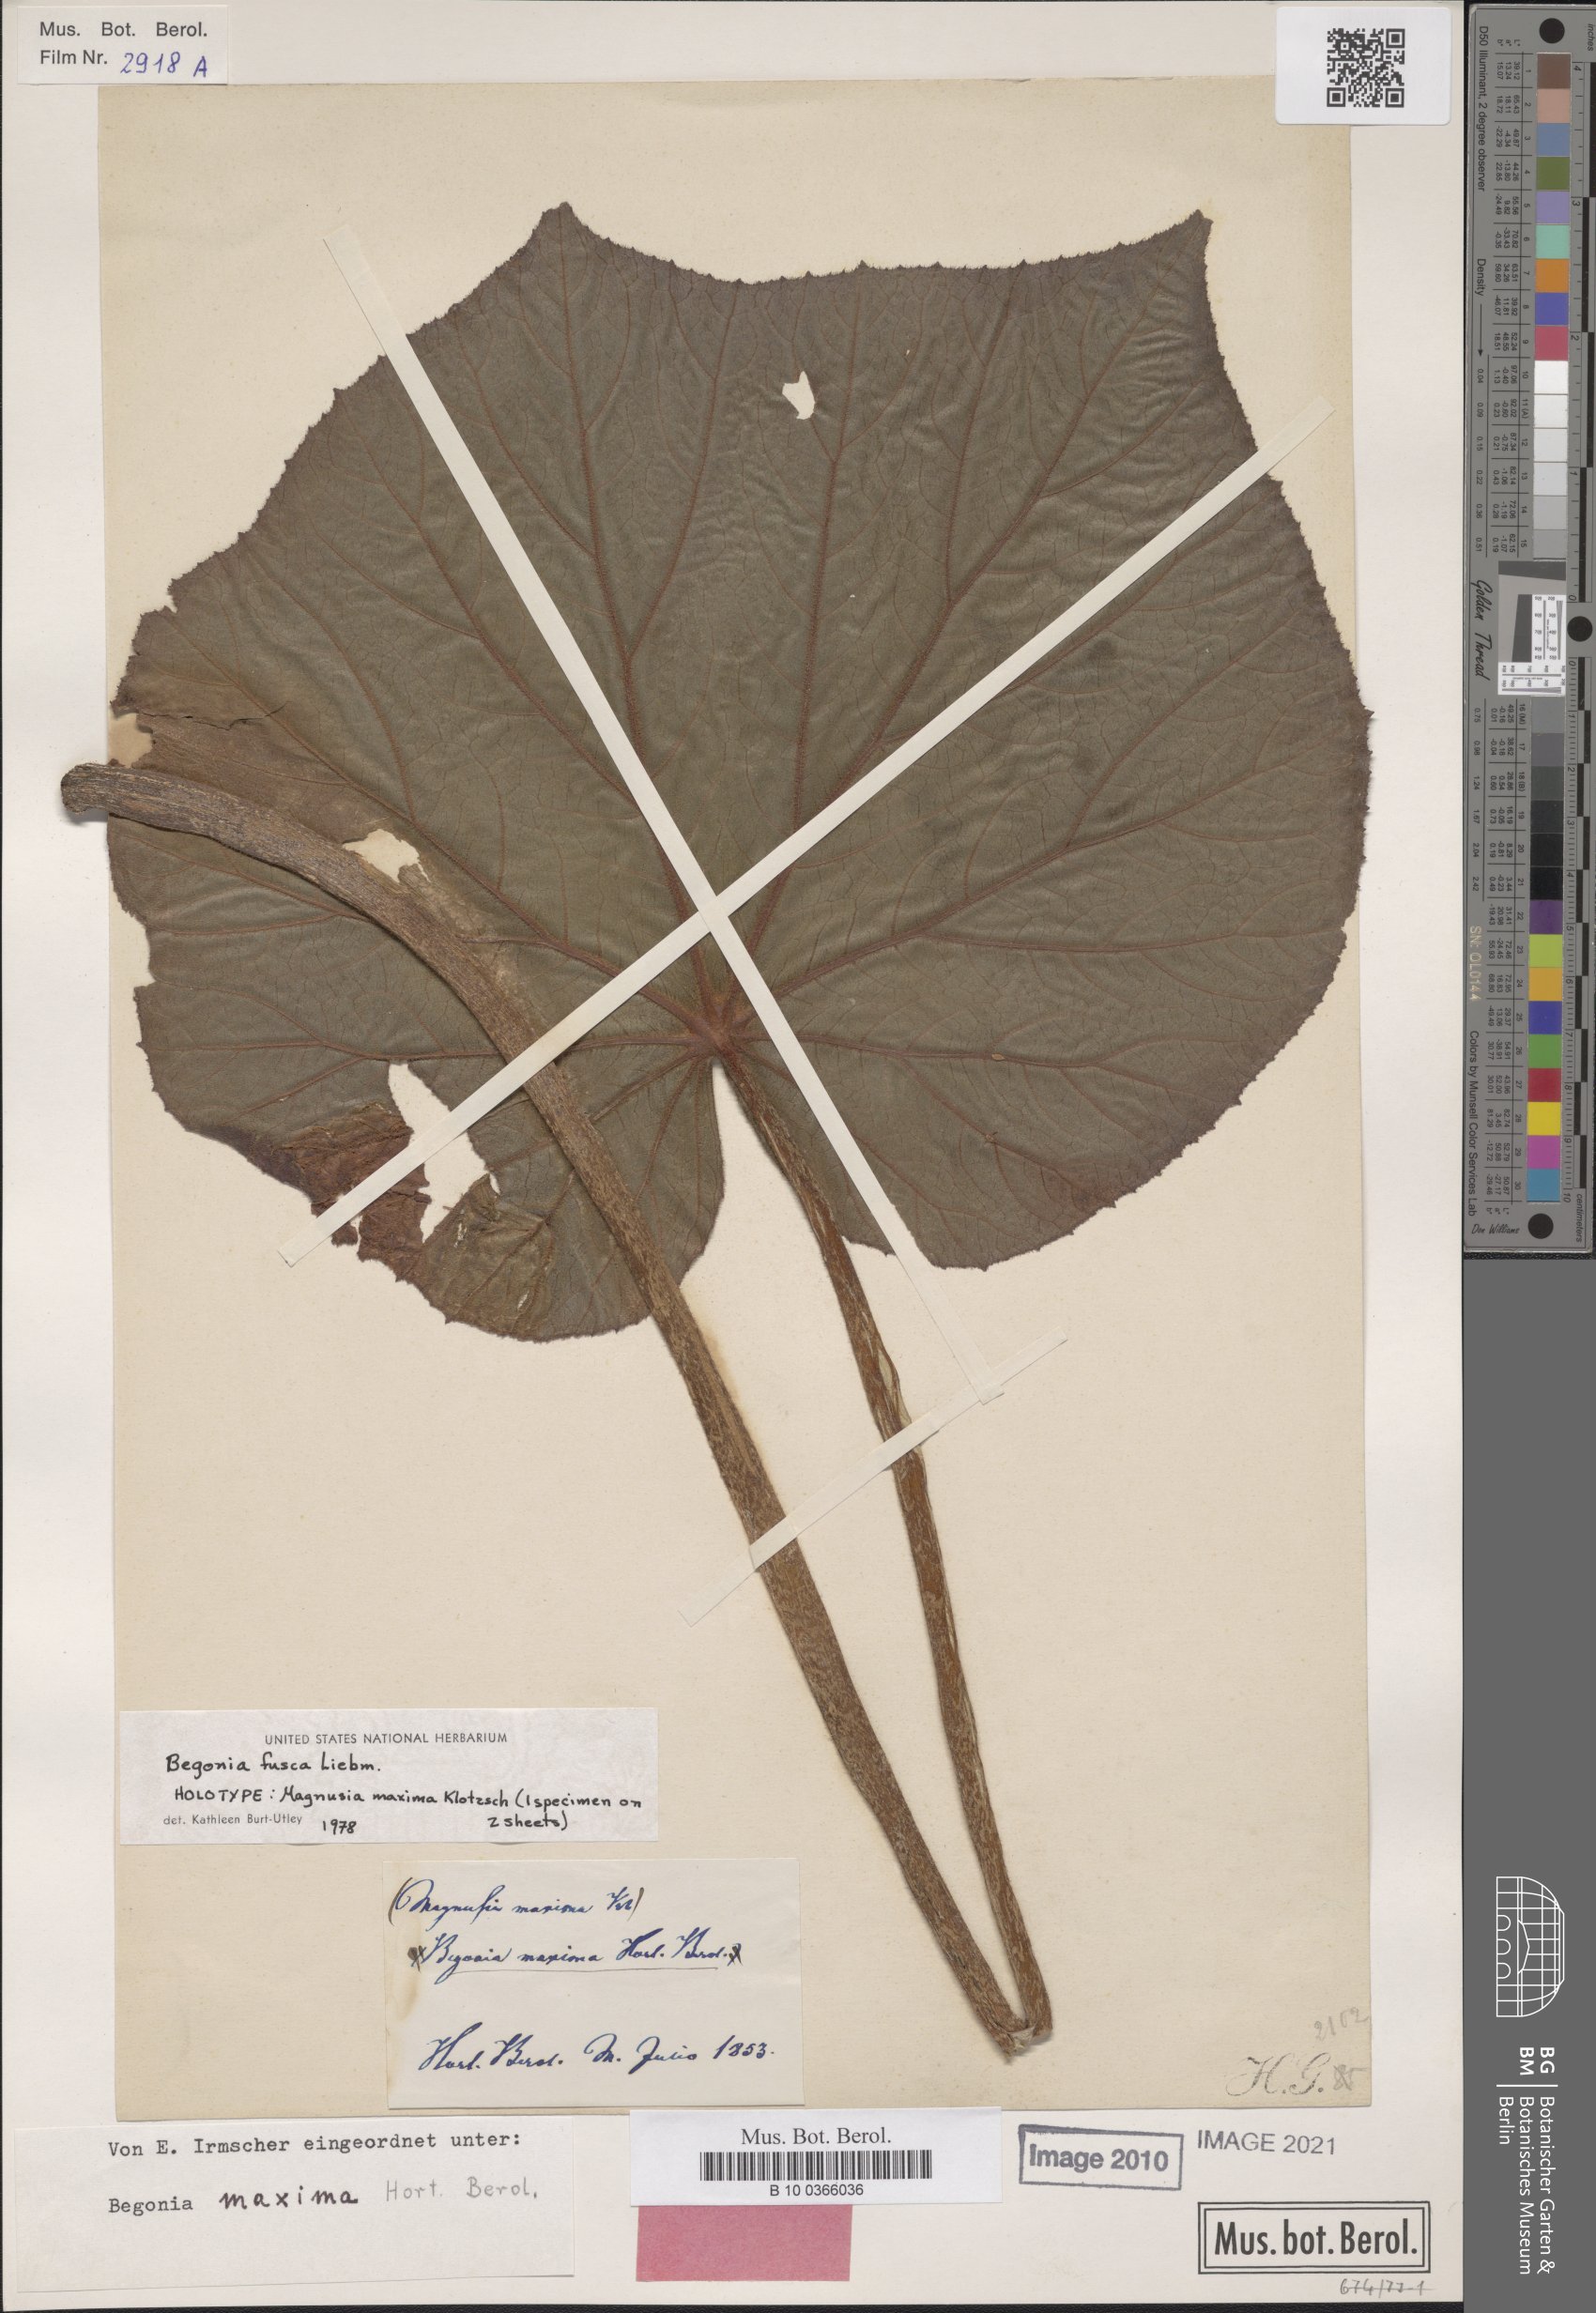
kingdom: Plantae
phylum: Tracheophyta
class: Magnoliopsida
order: Cucurbitales
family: Begoniaceae
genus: Begonia
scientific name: Begonia fusca
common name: Begonia
